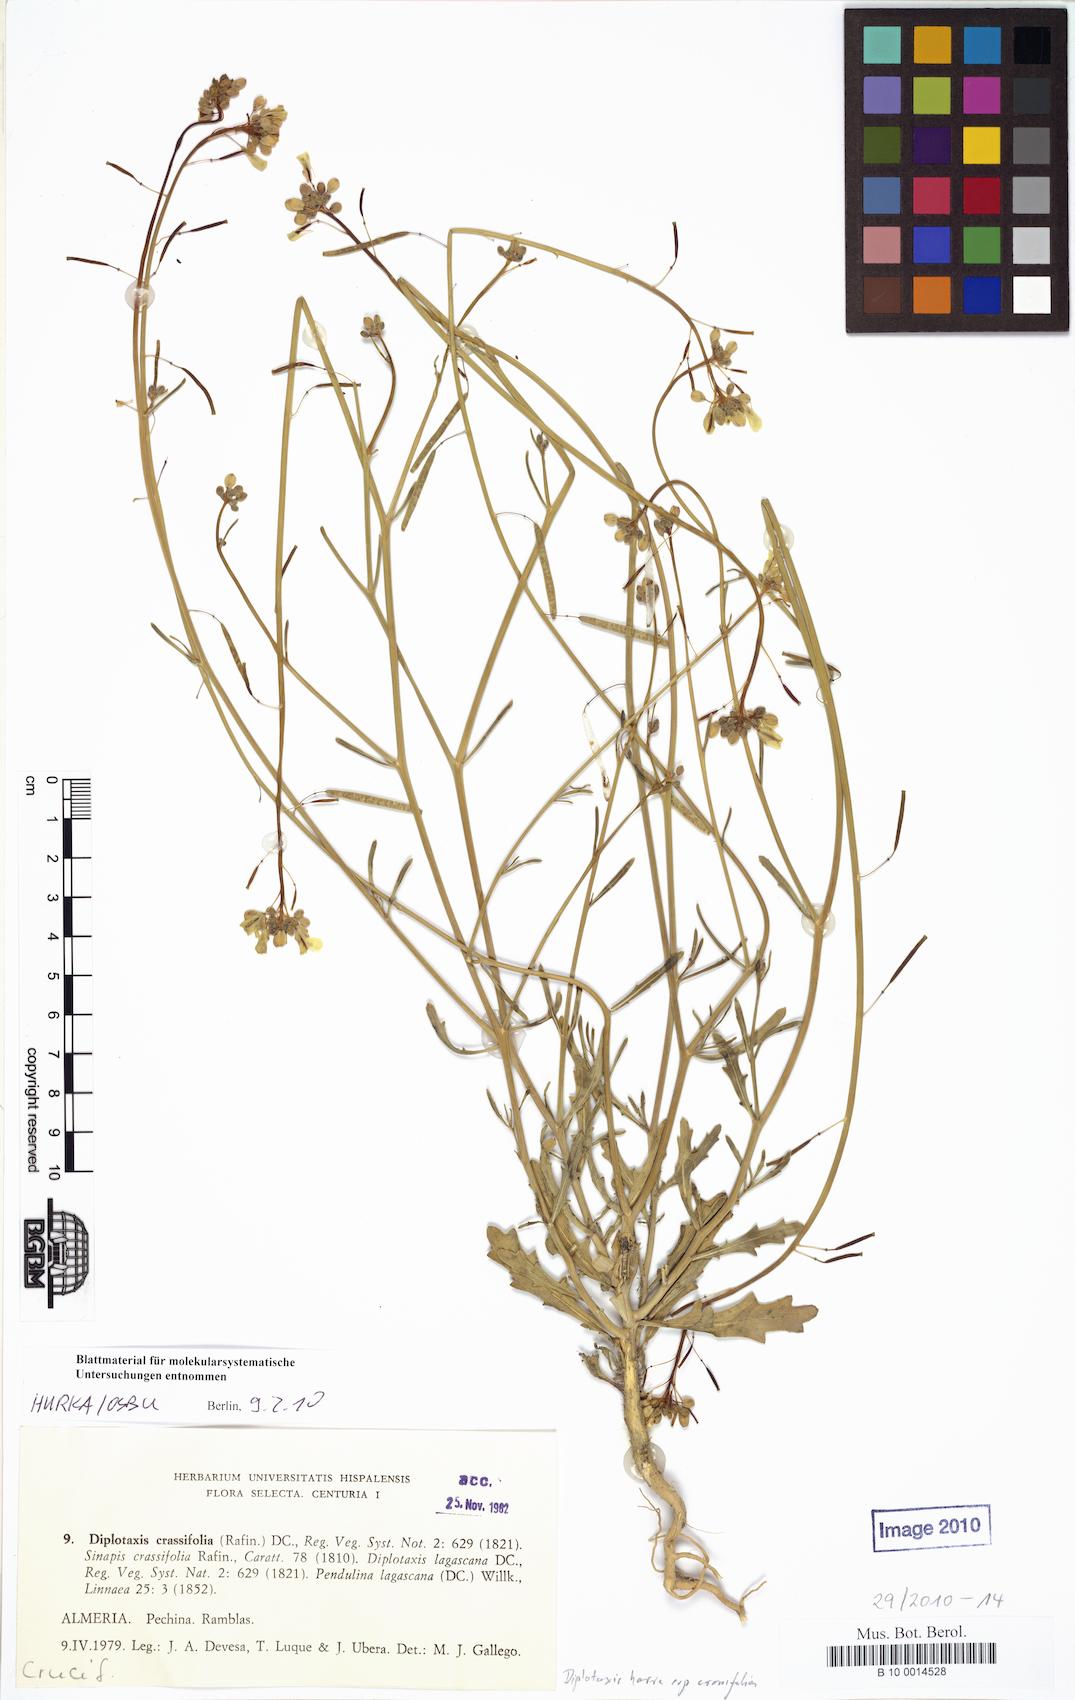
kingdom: Plantae
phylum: Tracheophyta
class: Magnoliopsida
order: Brassicales
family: Brassicaceae
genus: Diplotaxis
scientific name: Diplotaxis harra
